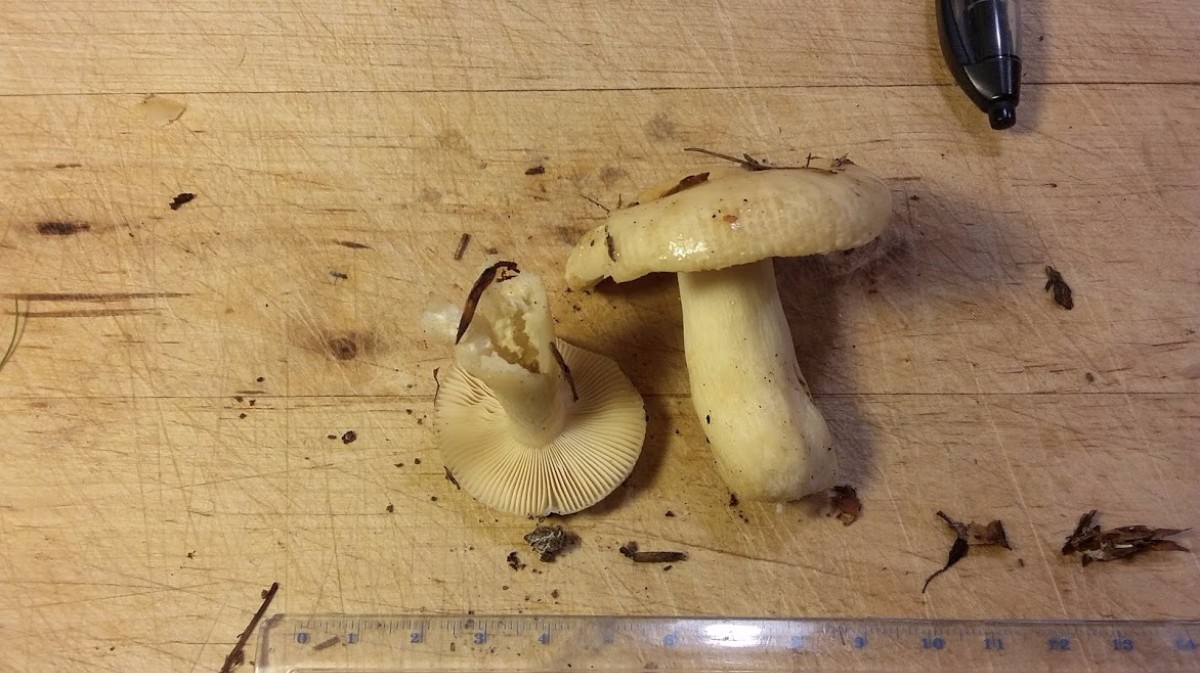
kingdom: Fungi
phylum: Basidiomycota
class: Agaricomycetes
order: Russulales
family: Russulaceae
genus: Russula
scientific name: Russula fellea
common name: galde-skørhat
